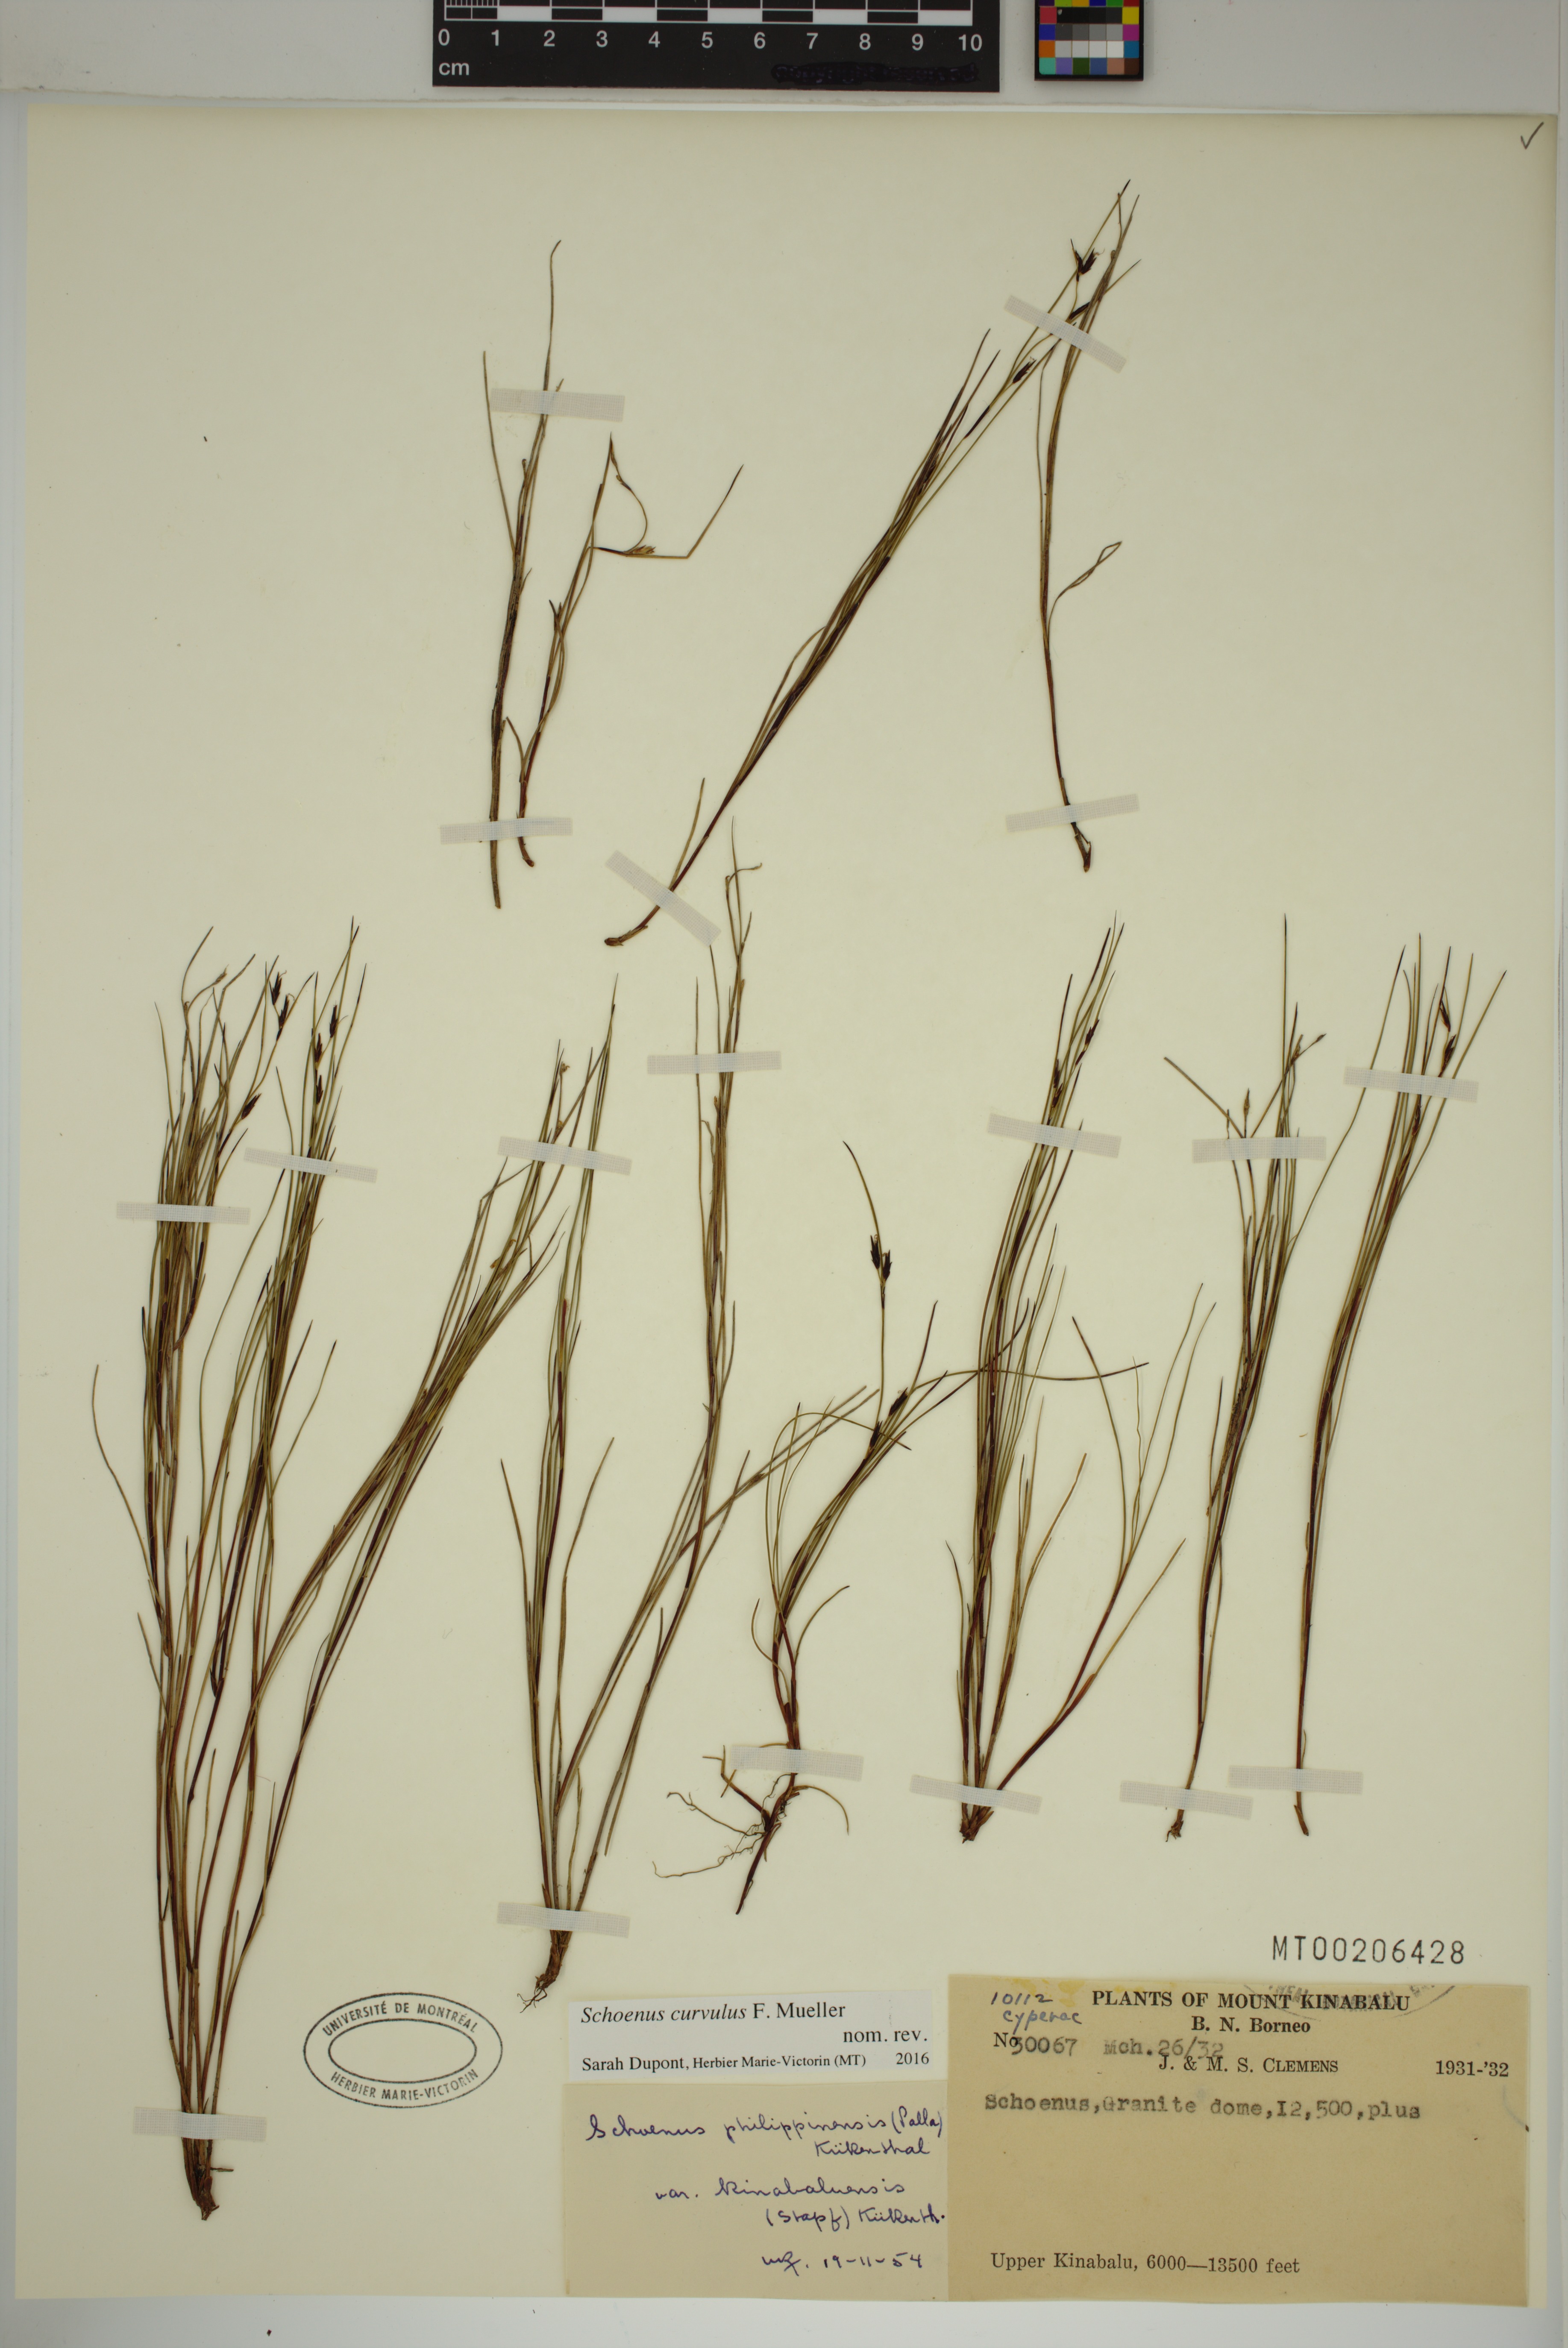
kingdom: Plantae
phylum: Tracheophyta
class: Liliopsida
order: Poales
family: Cyperaceae
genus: Schoenus
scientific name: Schoenus curvulus
